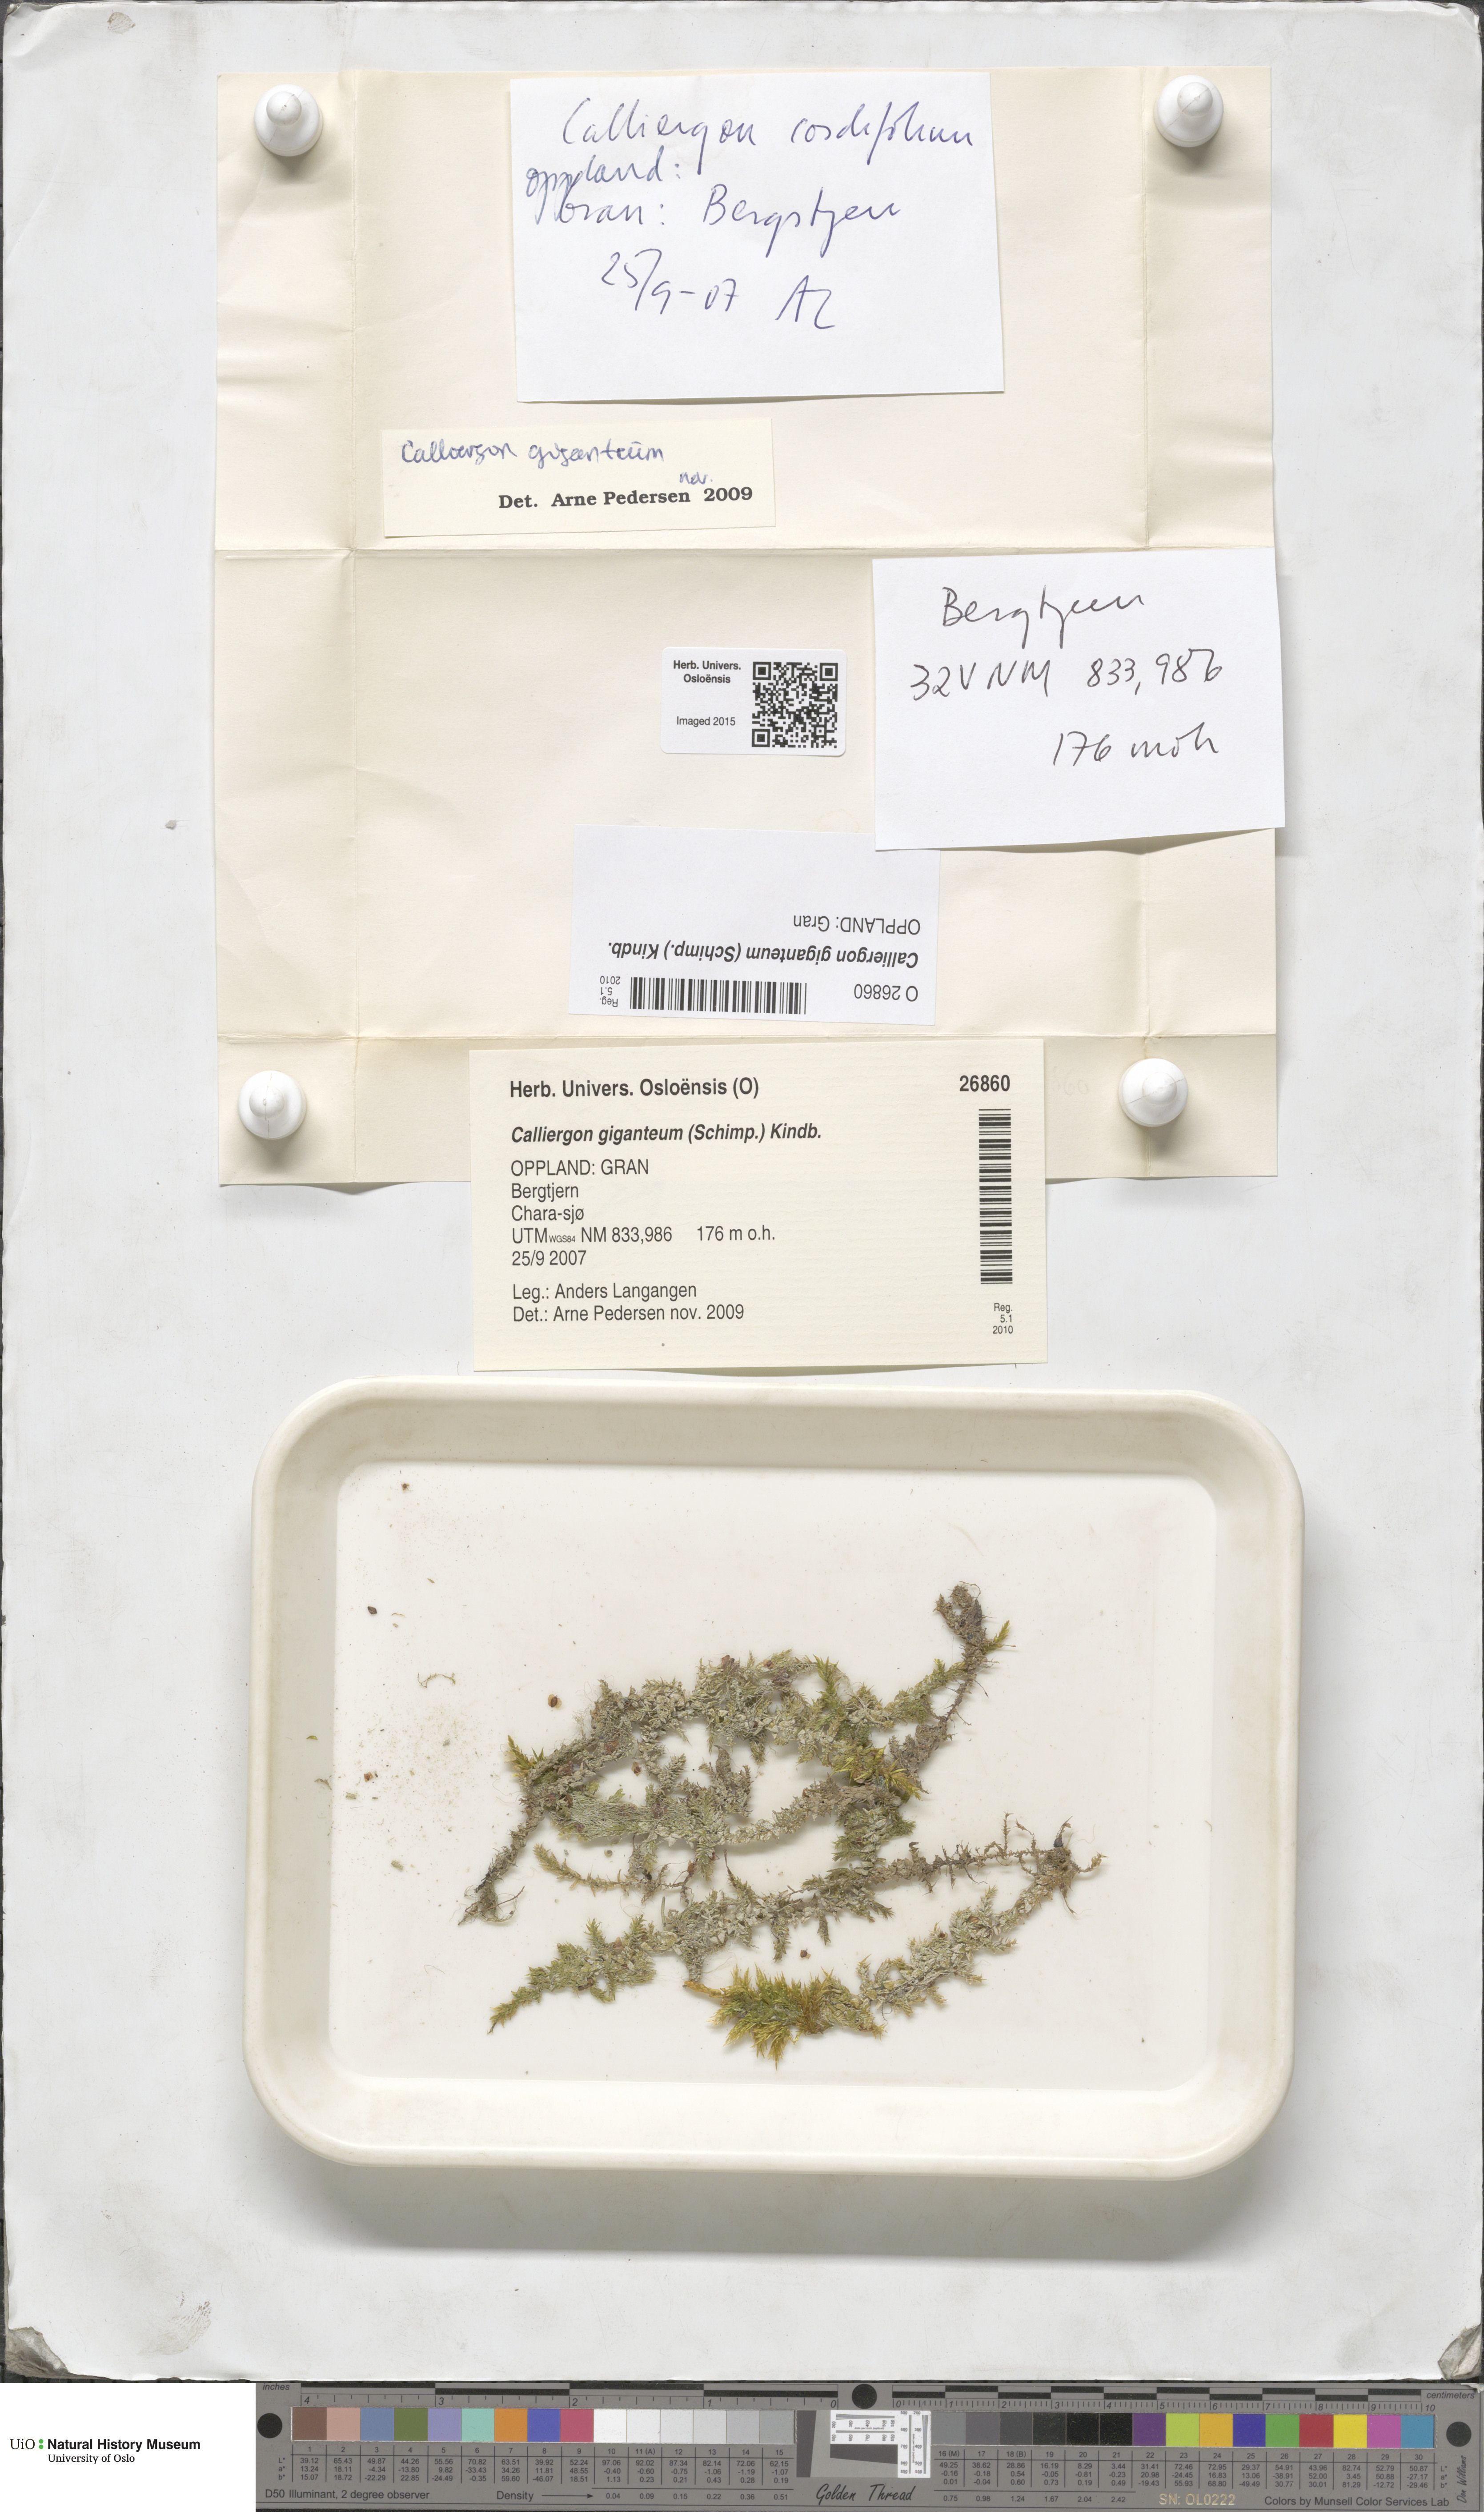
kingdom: Plantae
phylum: Bryophyta
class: Bryopsida
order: Hypnales
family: Calliergonaceae
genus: Calliergon
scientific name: Calliergon giganteum
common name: Giant spear moss
